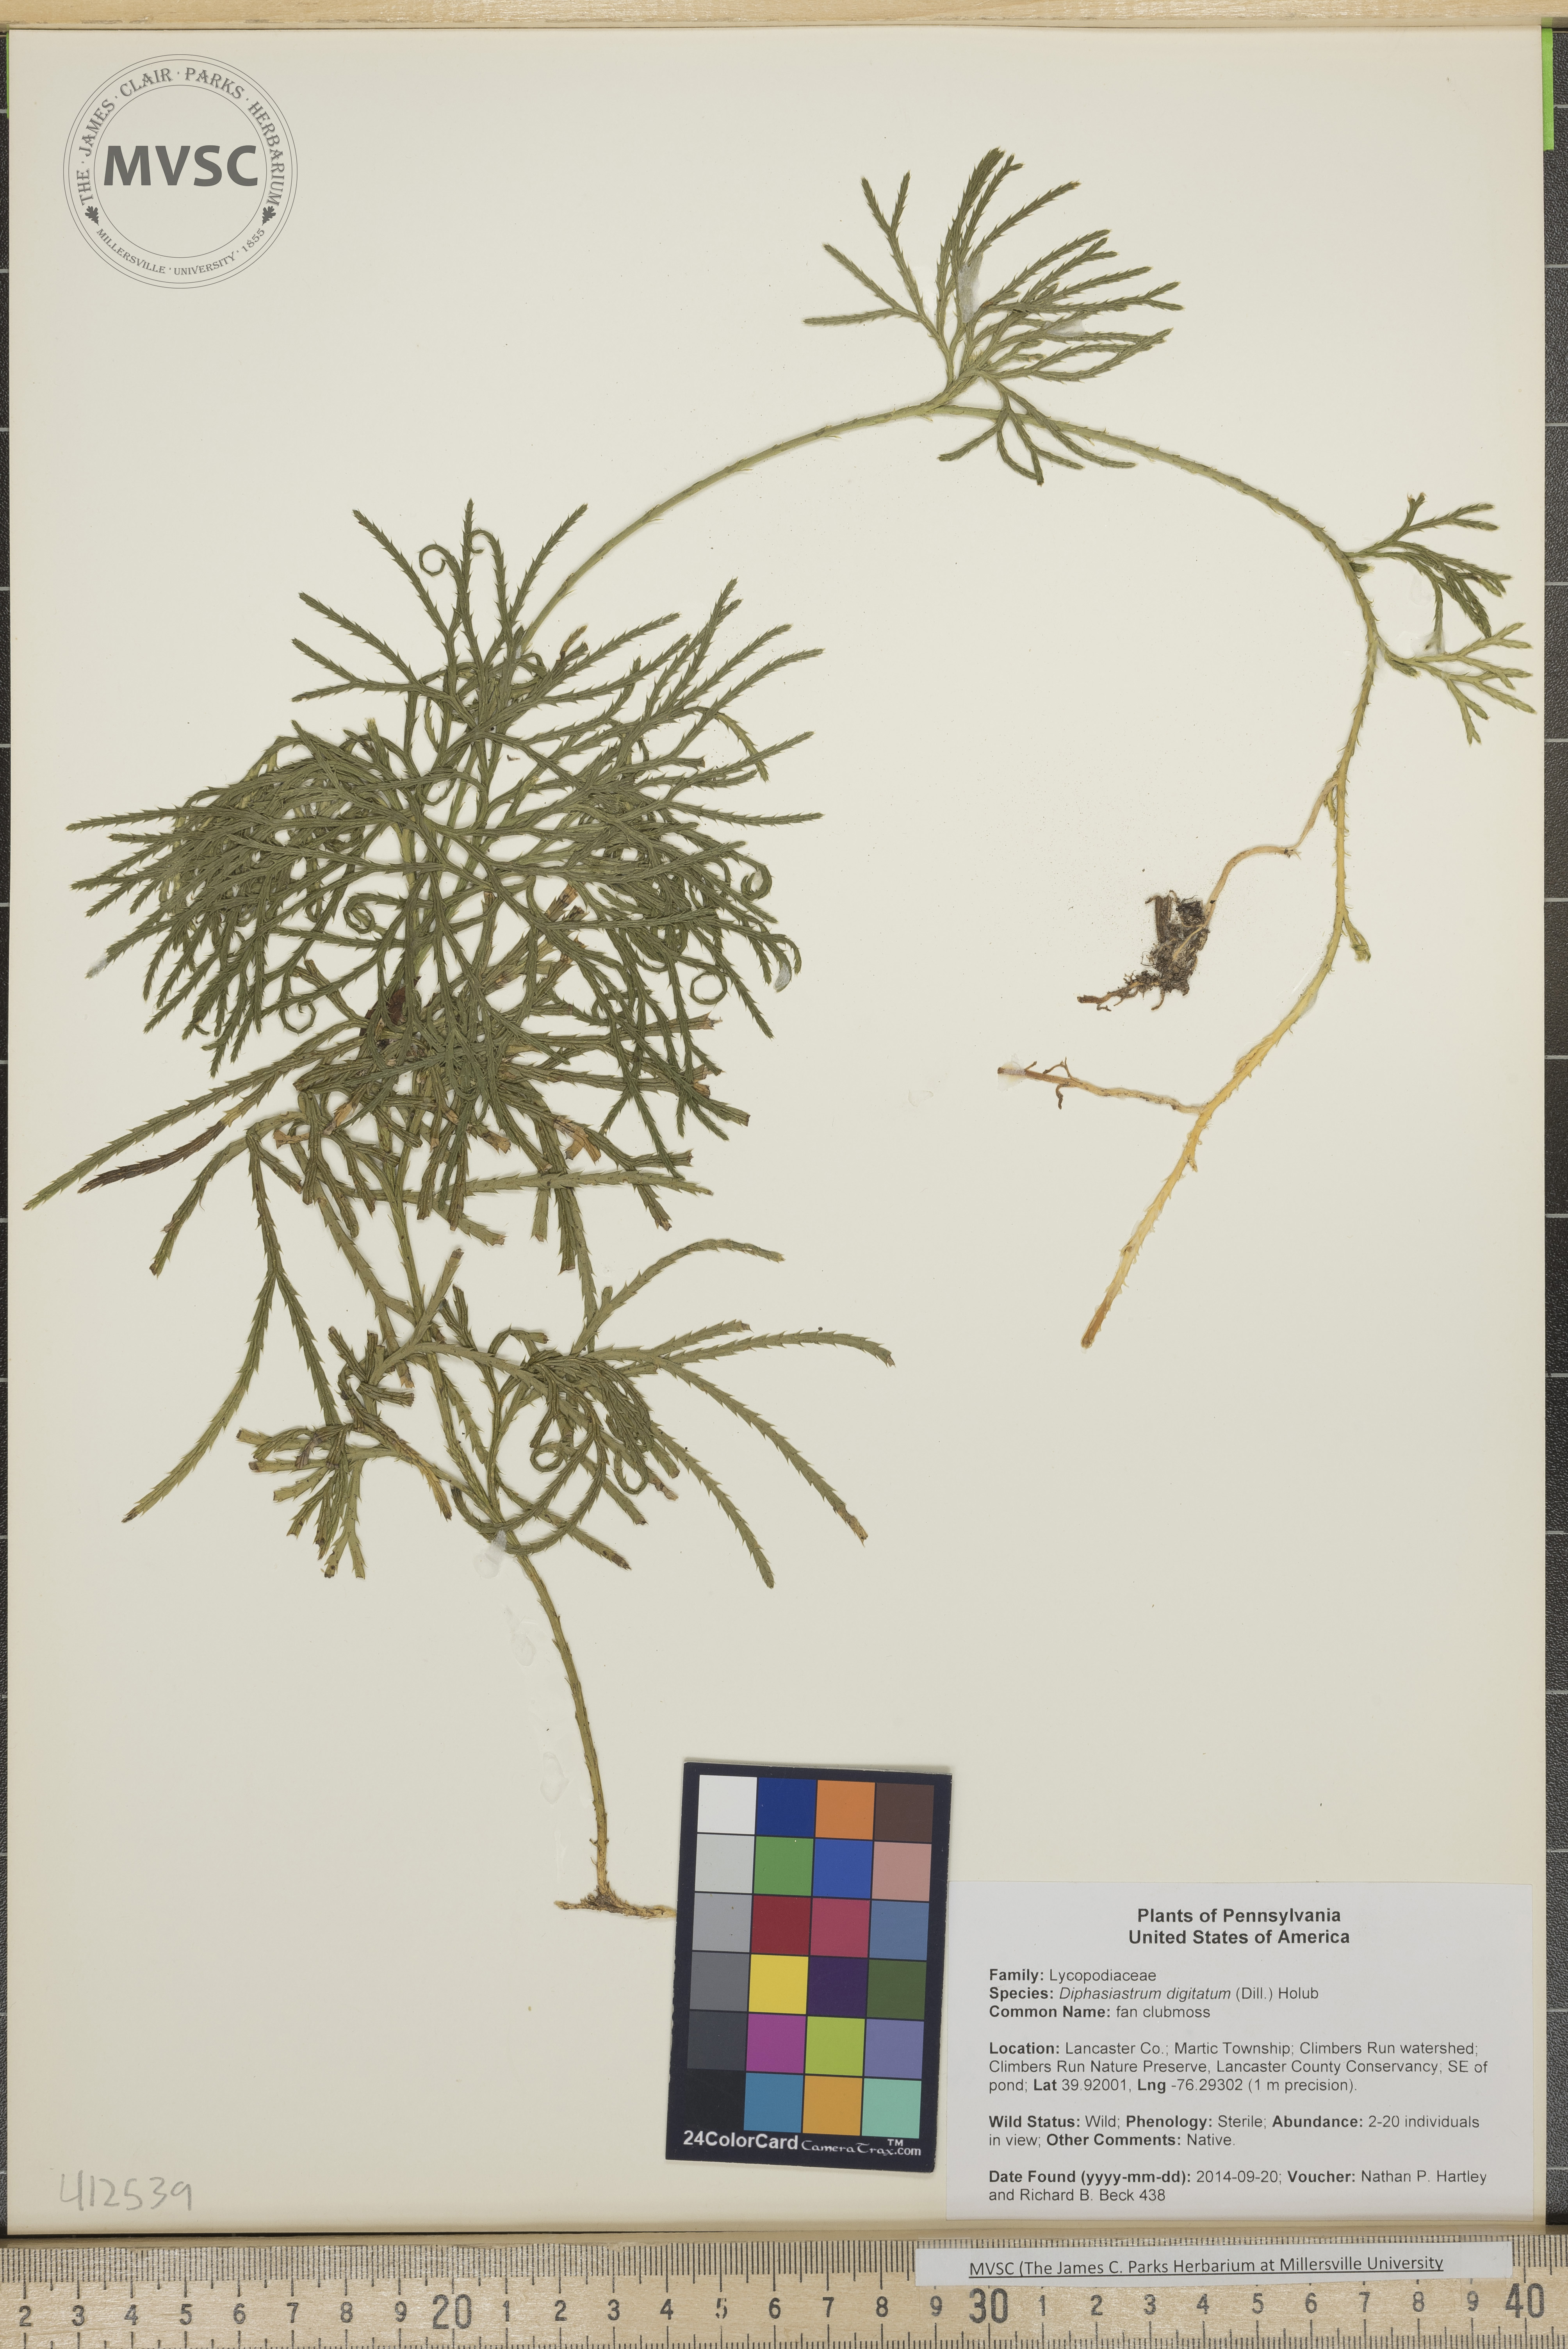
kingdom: Plantae
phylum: Tracheophyta
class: Lycopodiopsida
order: Lycopodiales
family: Lycopodiaceae
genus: Diphasiastrum
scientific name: Diphasiastrum digitatum
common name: fan clubmoss
